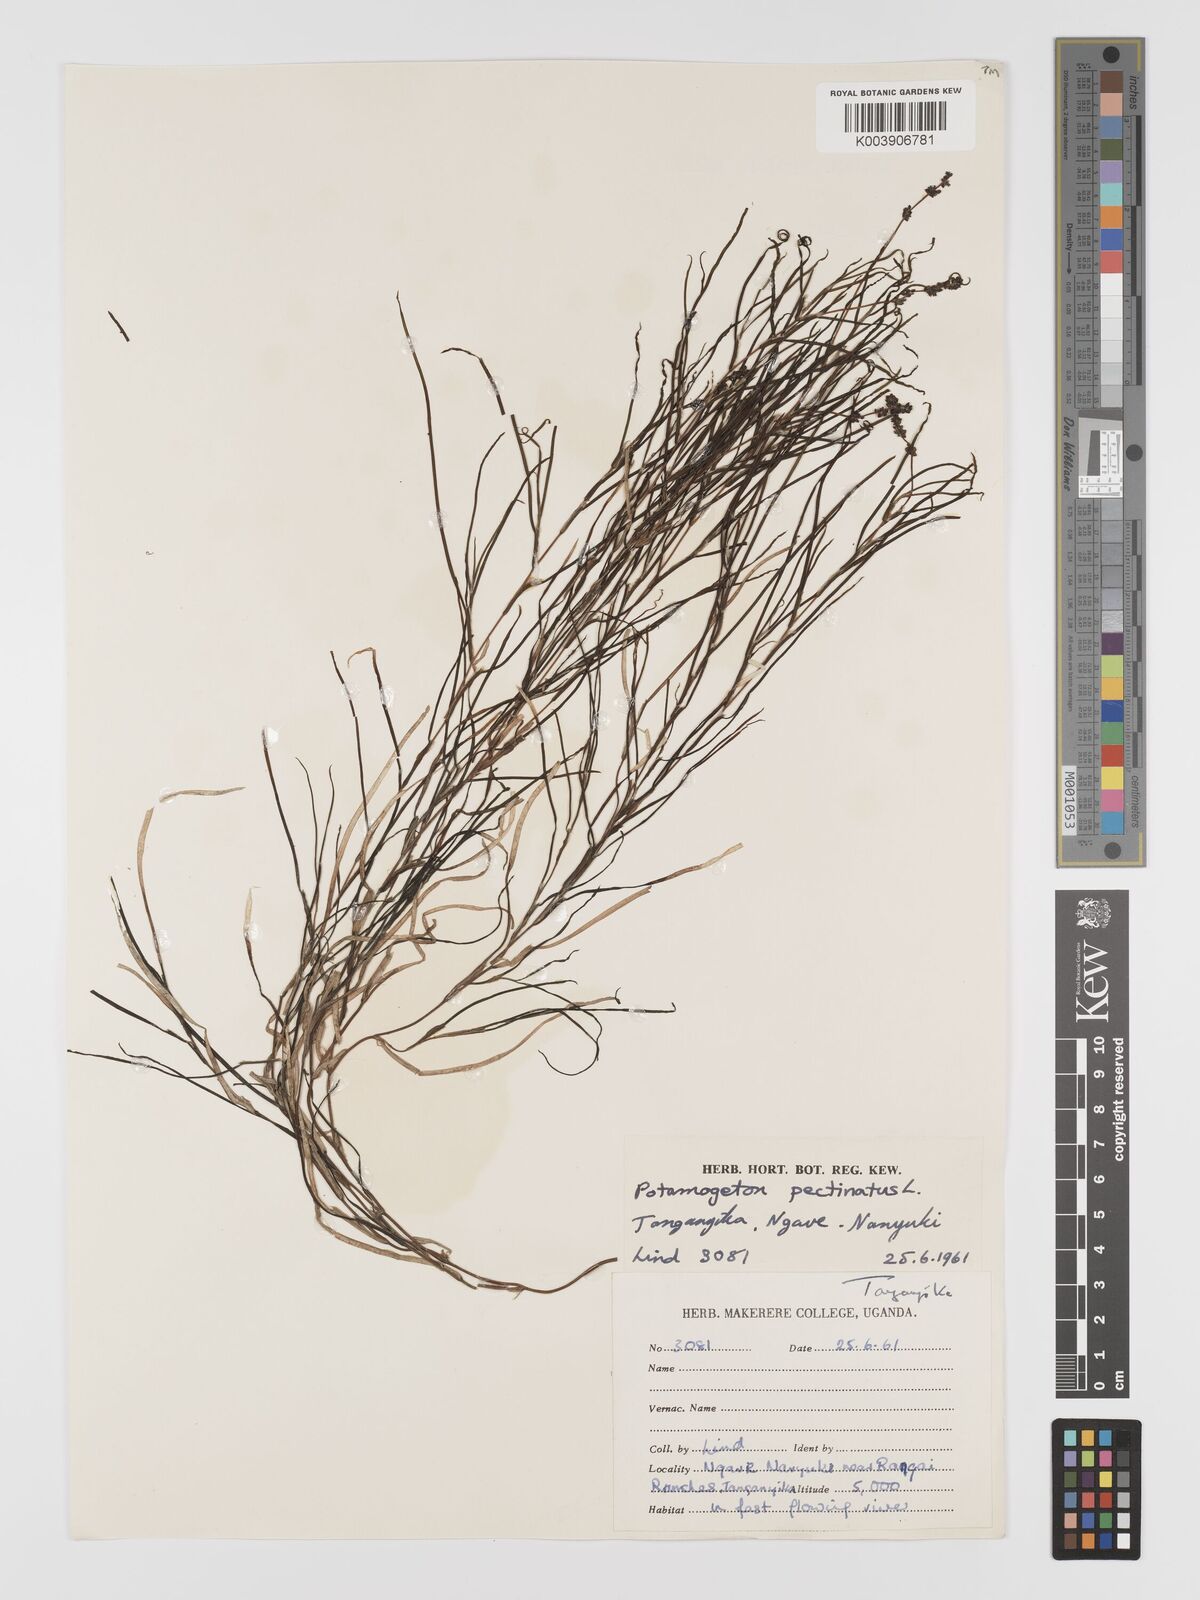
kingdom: Plantae
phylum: Tracheophyta
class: Liliopsida
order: Alismatales
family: Potamogetonaceae
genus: Stuckenia
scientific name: Stuckenia pectinata
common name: Sago pondweed
